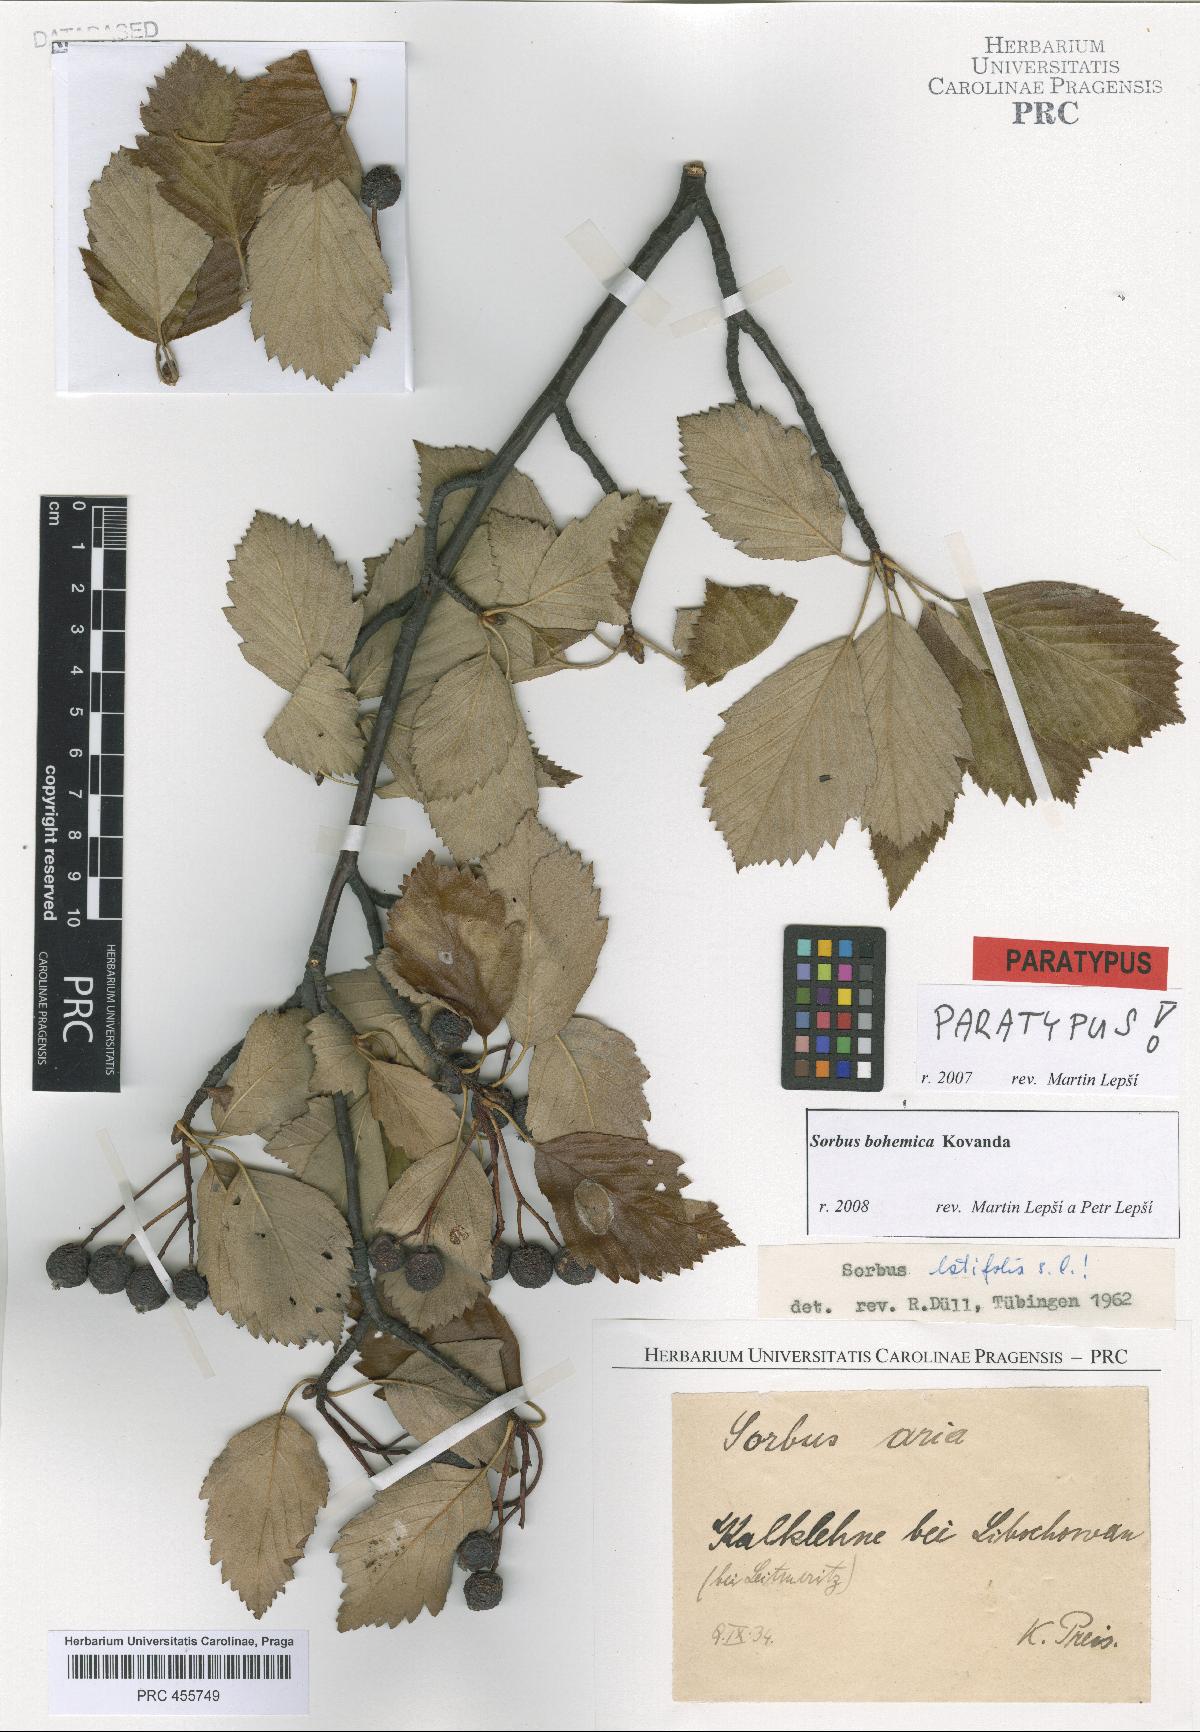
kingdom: Plantae
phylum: Tracheophyta
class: Magnoliopsida
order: Rosales
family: Rosaceae
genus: Karpatiosorbus
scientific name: Karpatiosorbus bohemica
